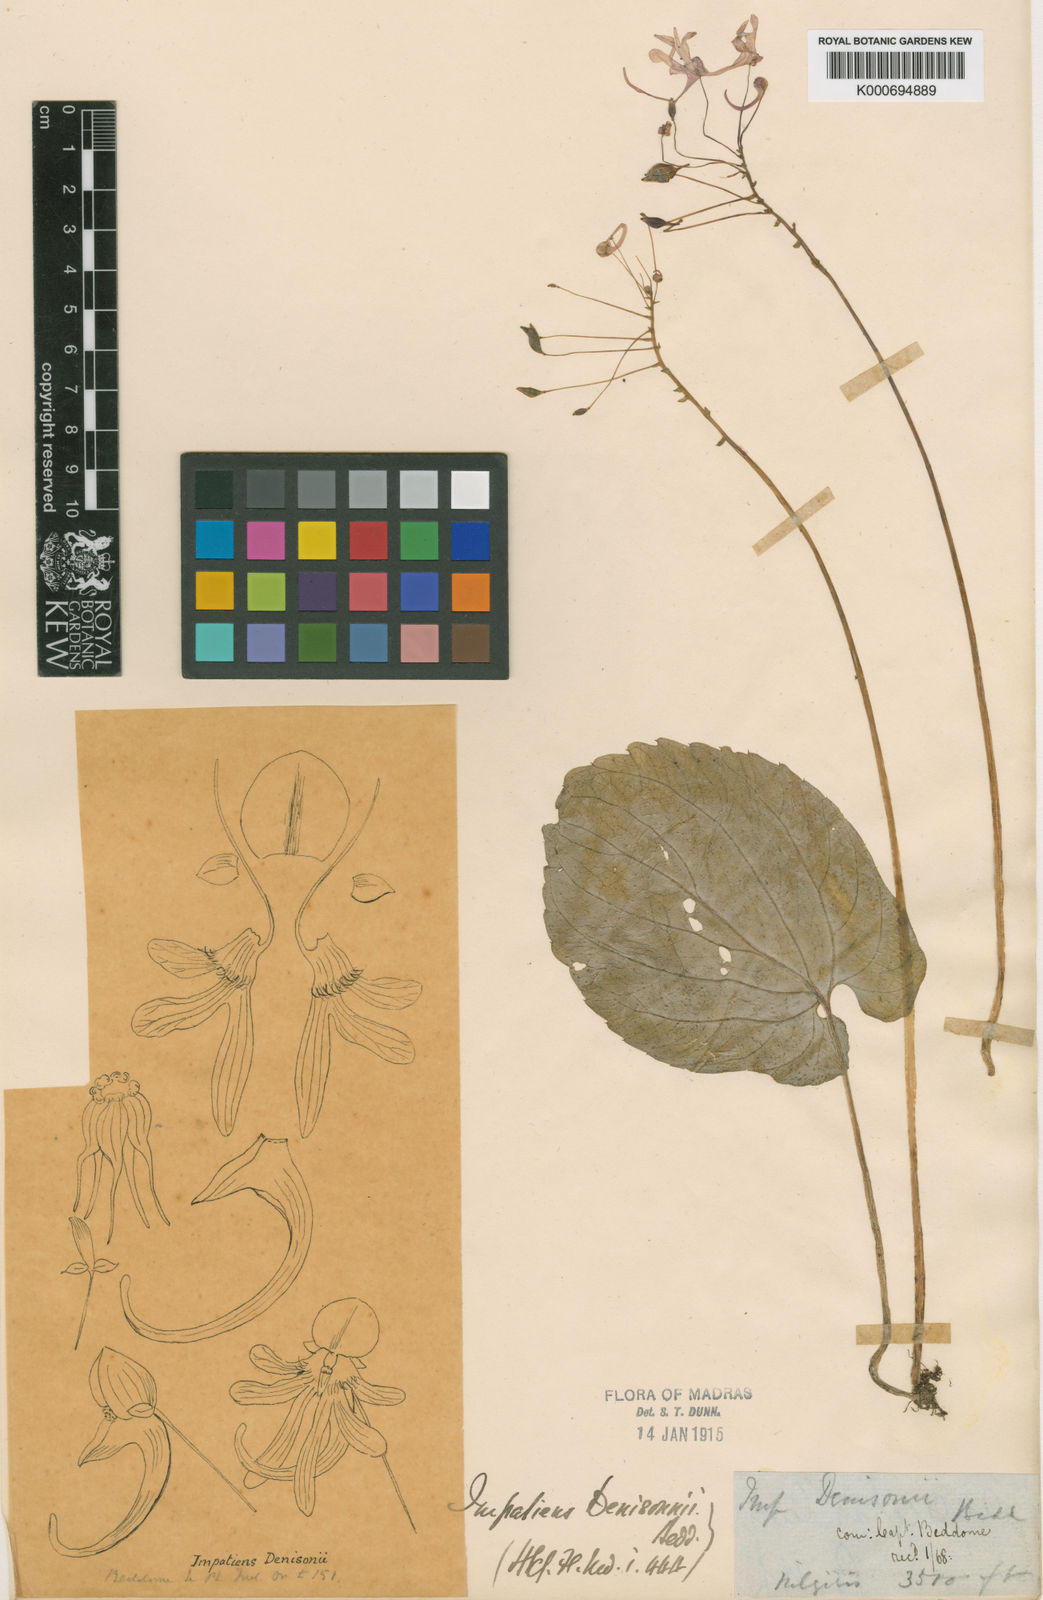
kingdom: Plantae
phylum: Tracheophyta
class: Magnoliopsida
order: Ericales
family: Balsaminaceae
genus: Impatiens
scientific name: Impatiens denisonii
